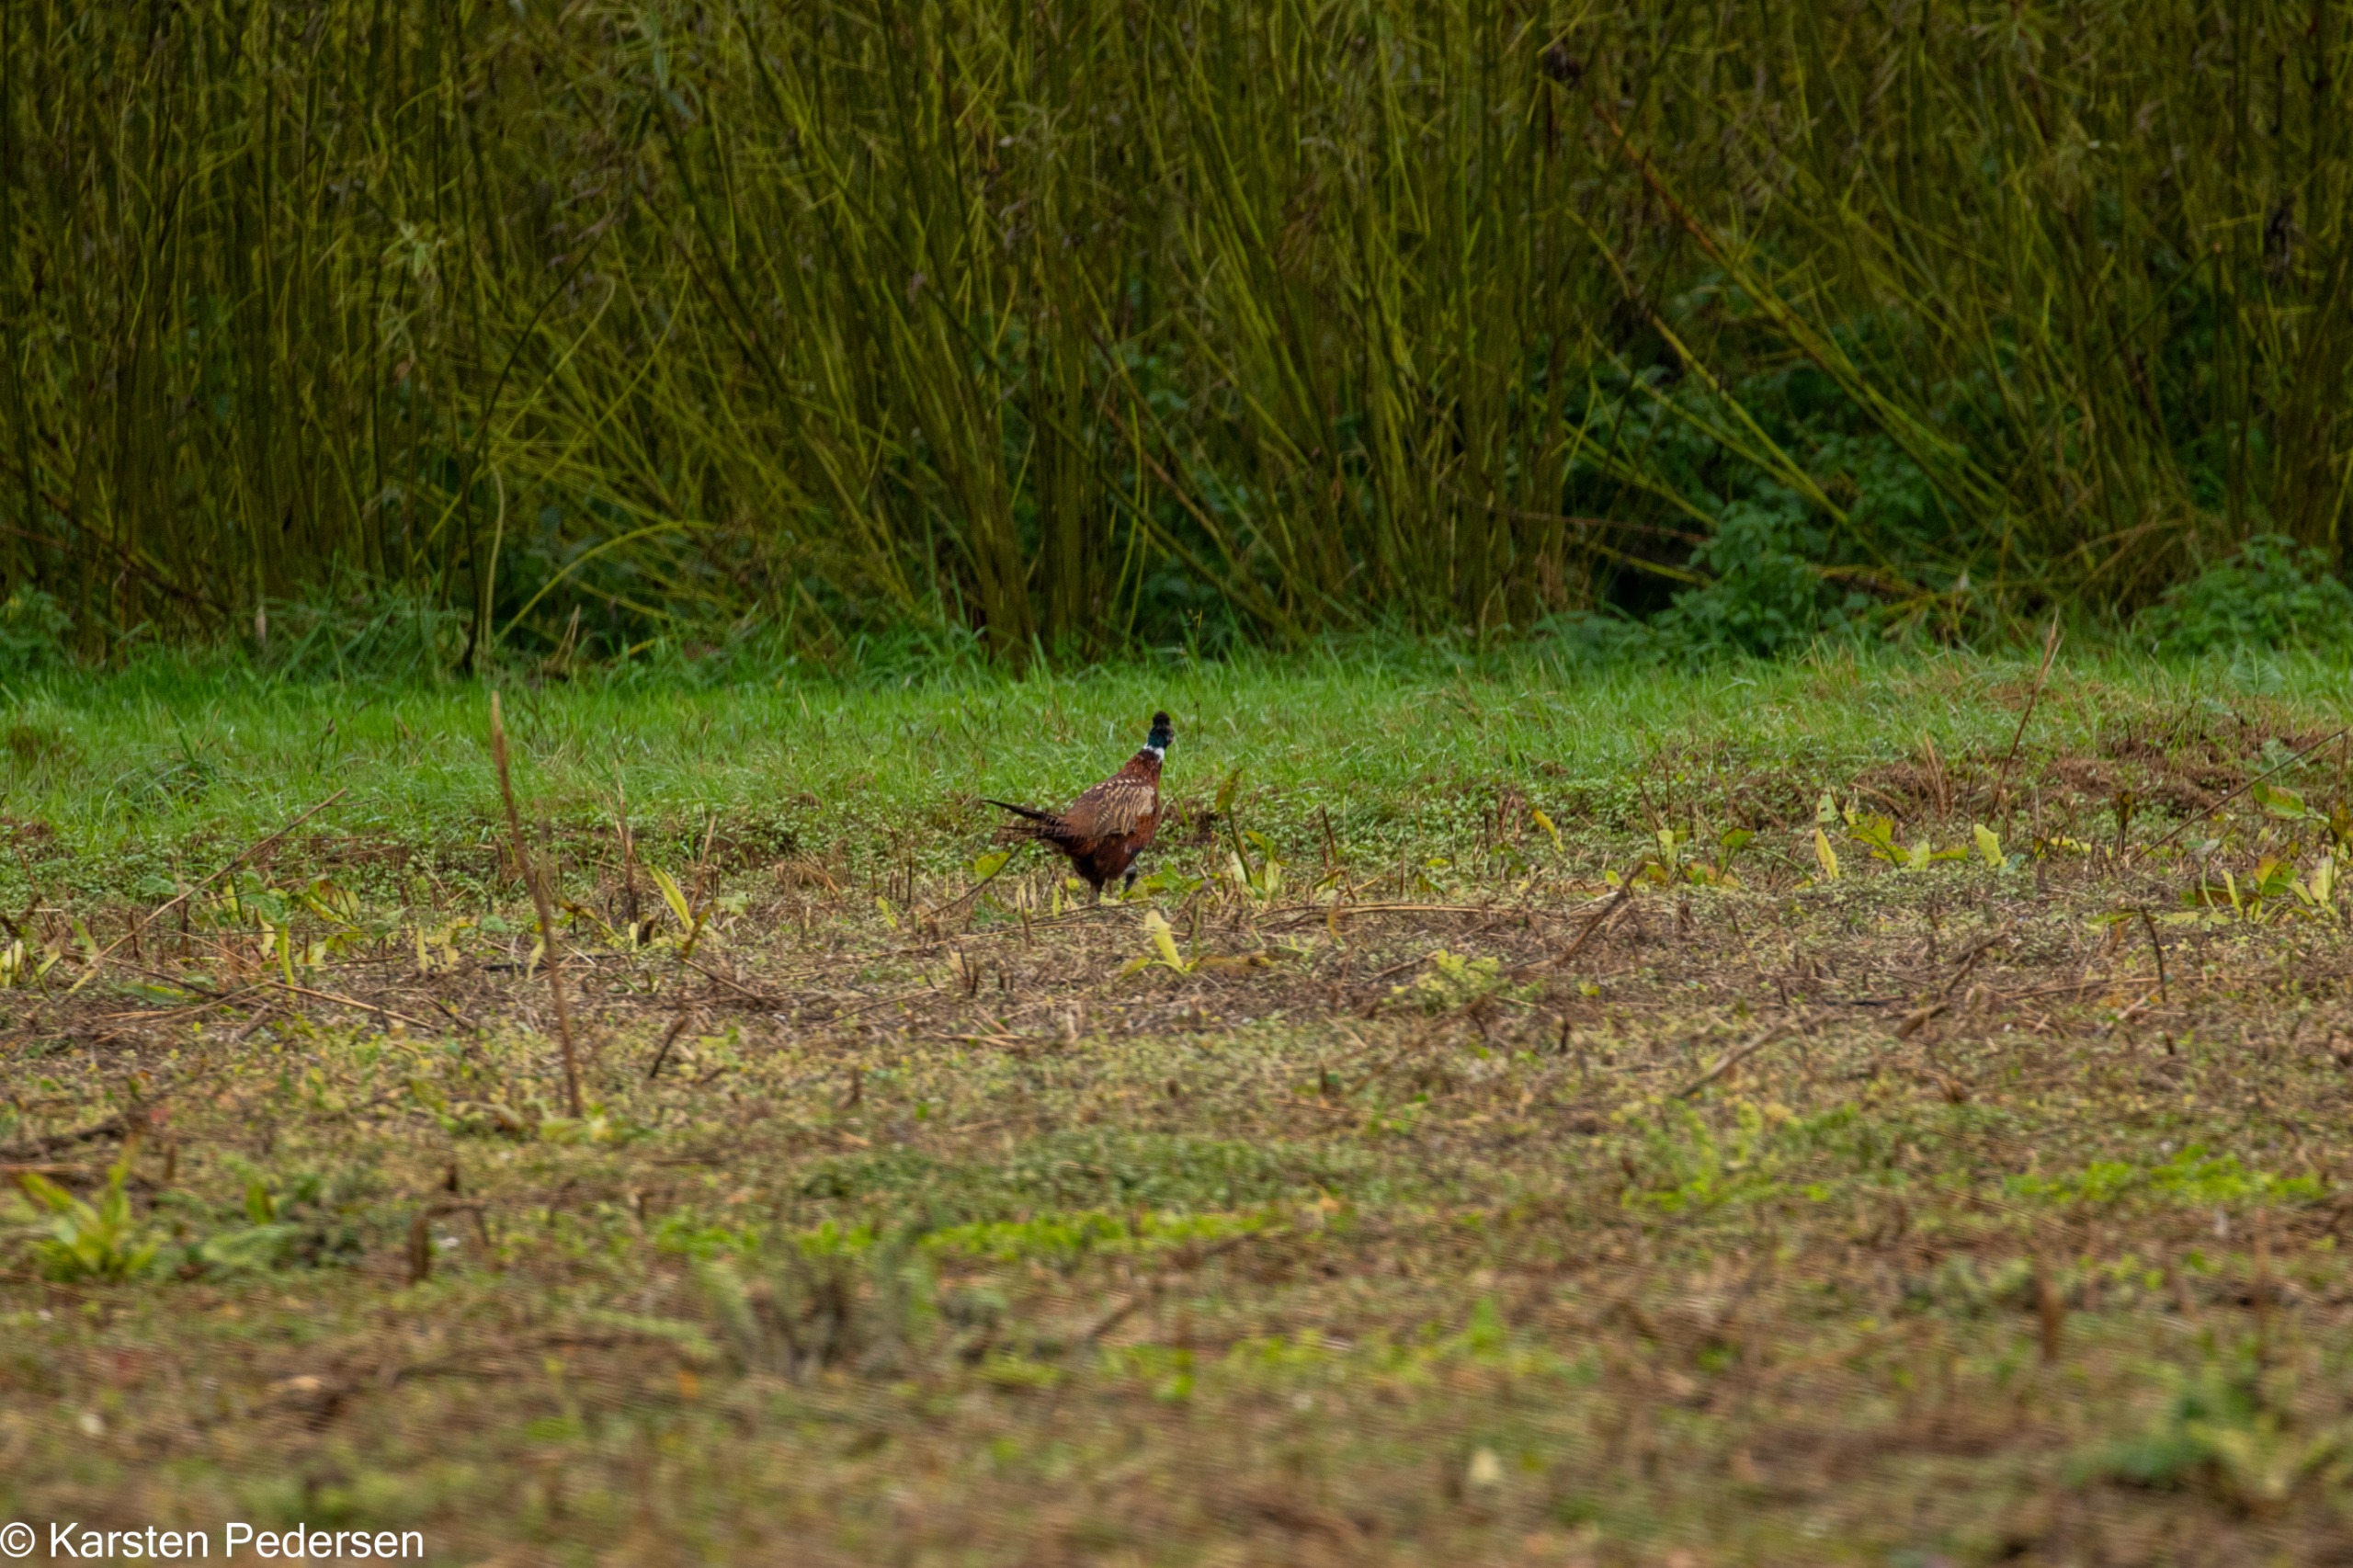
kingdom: Animalia
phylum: Chordata
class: Aves
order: Galliformes
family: Phasianidae
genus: Phasianus
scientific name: Phasianus colchicus
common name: Fasan
